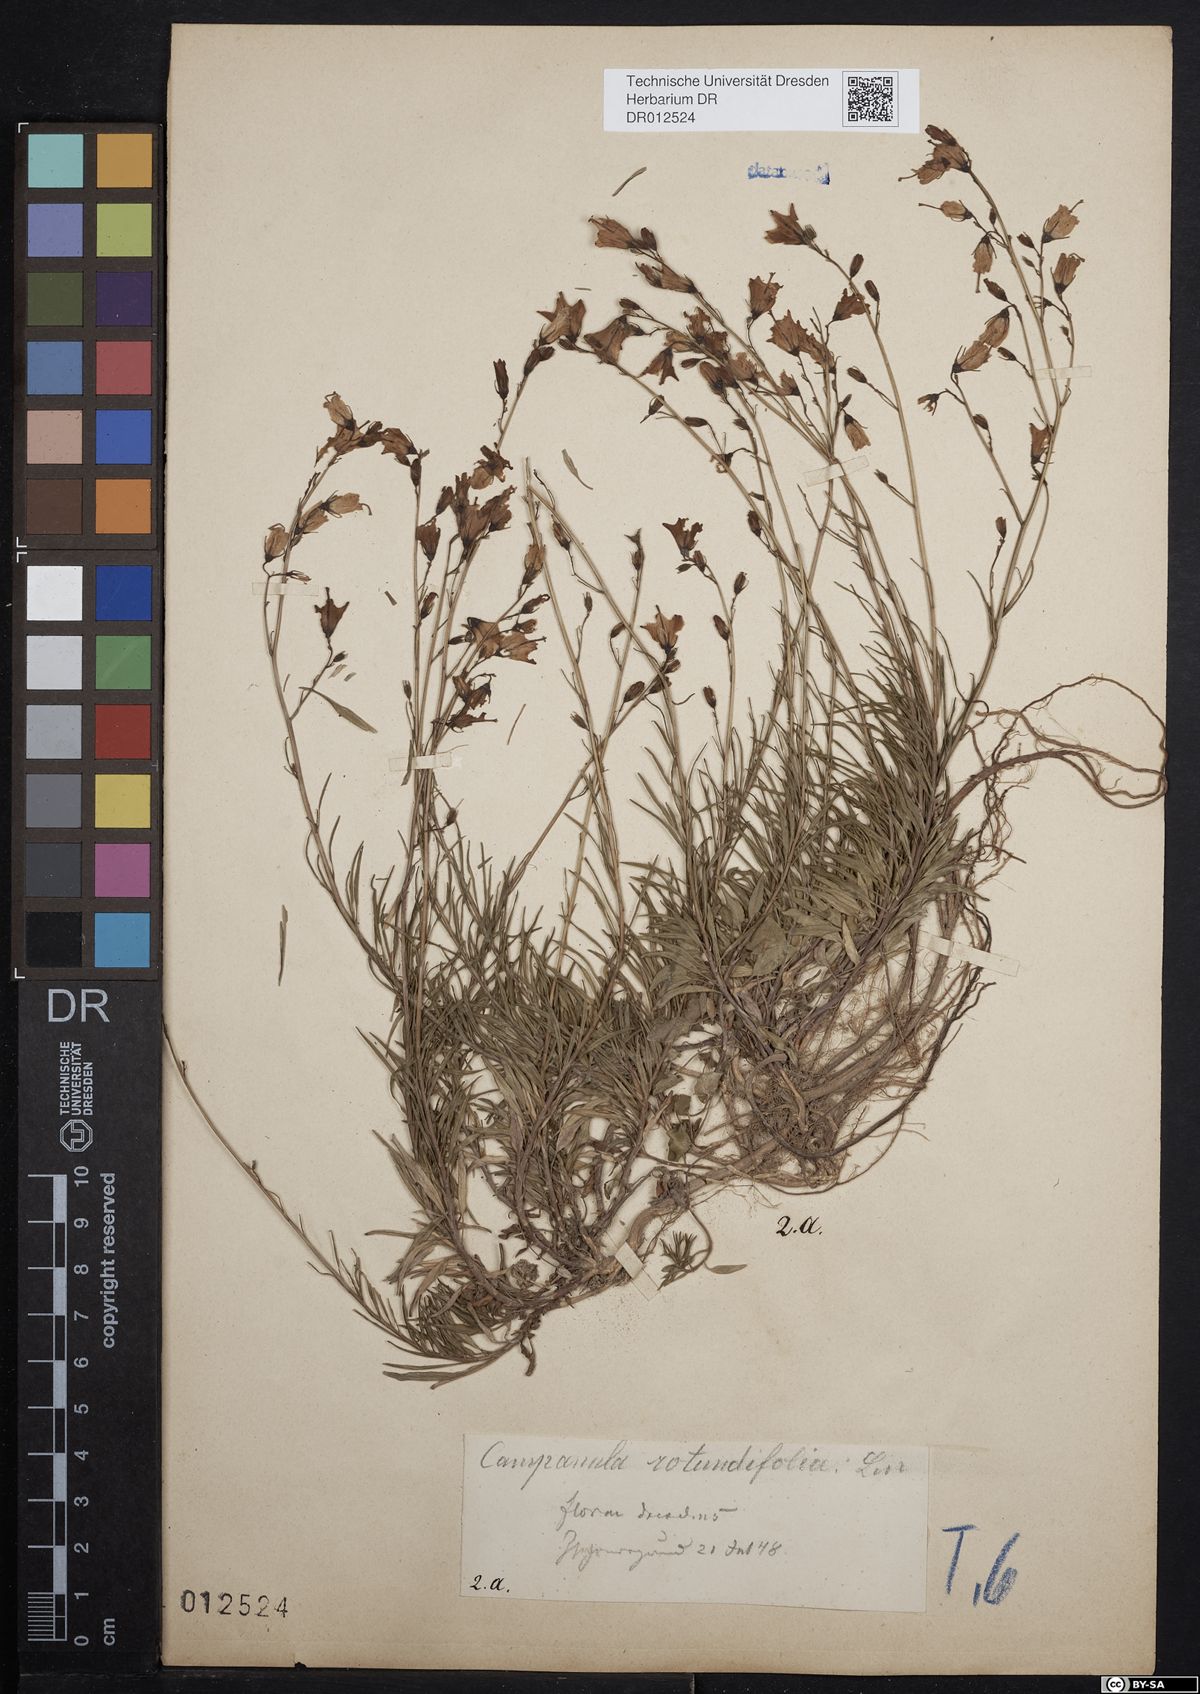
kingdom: Plantae
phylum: Tracheophyta
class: Magnoliopsida
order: Asterales
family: Campanulaceae
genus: Campanula
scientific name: Campanula rotundifolia
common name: Harebell
